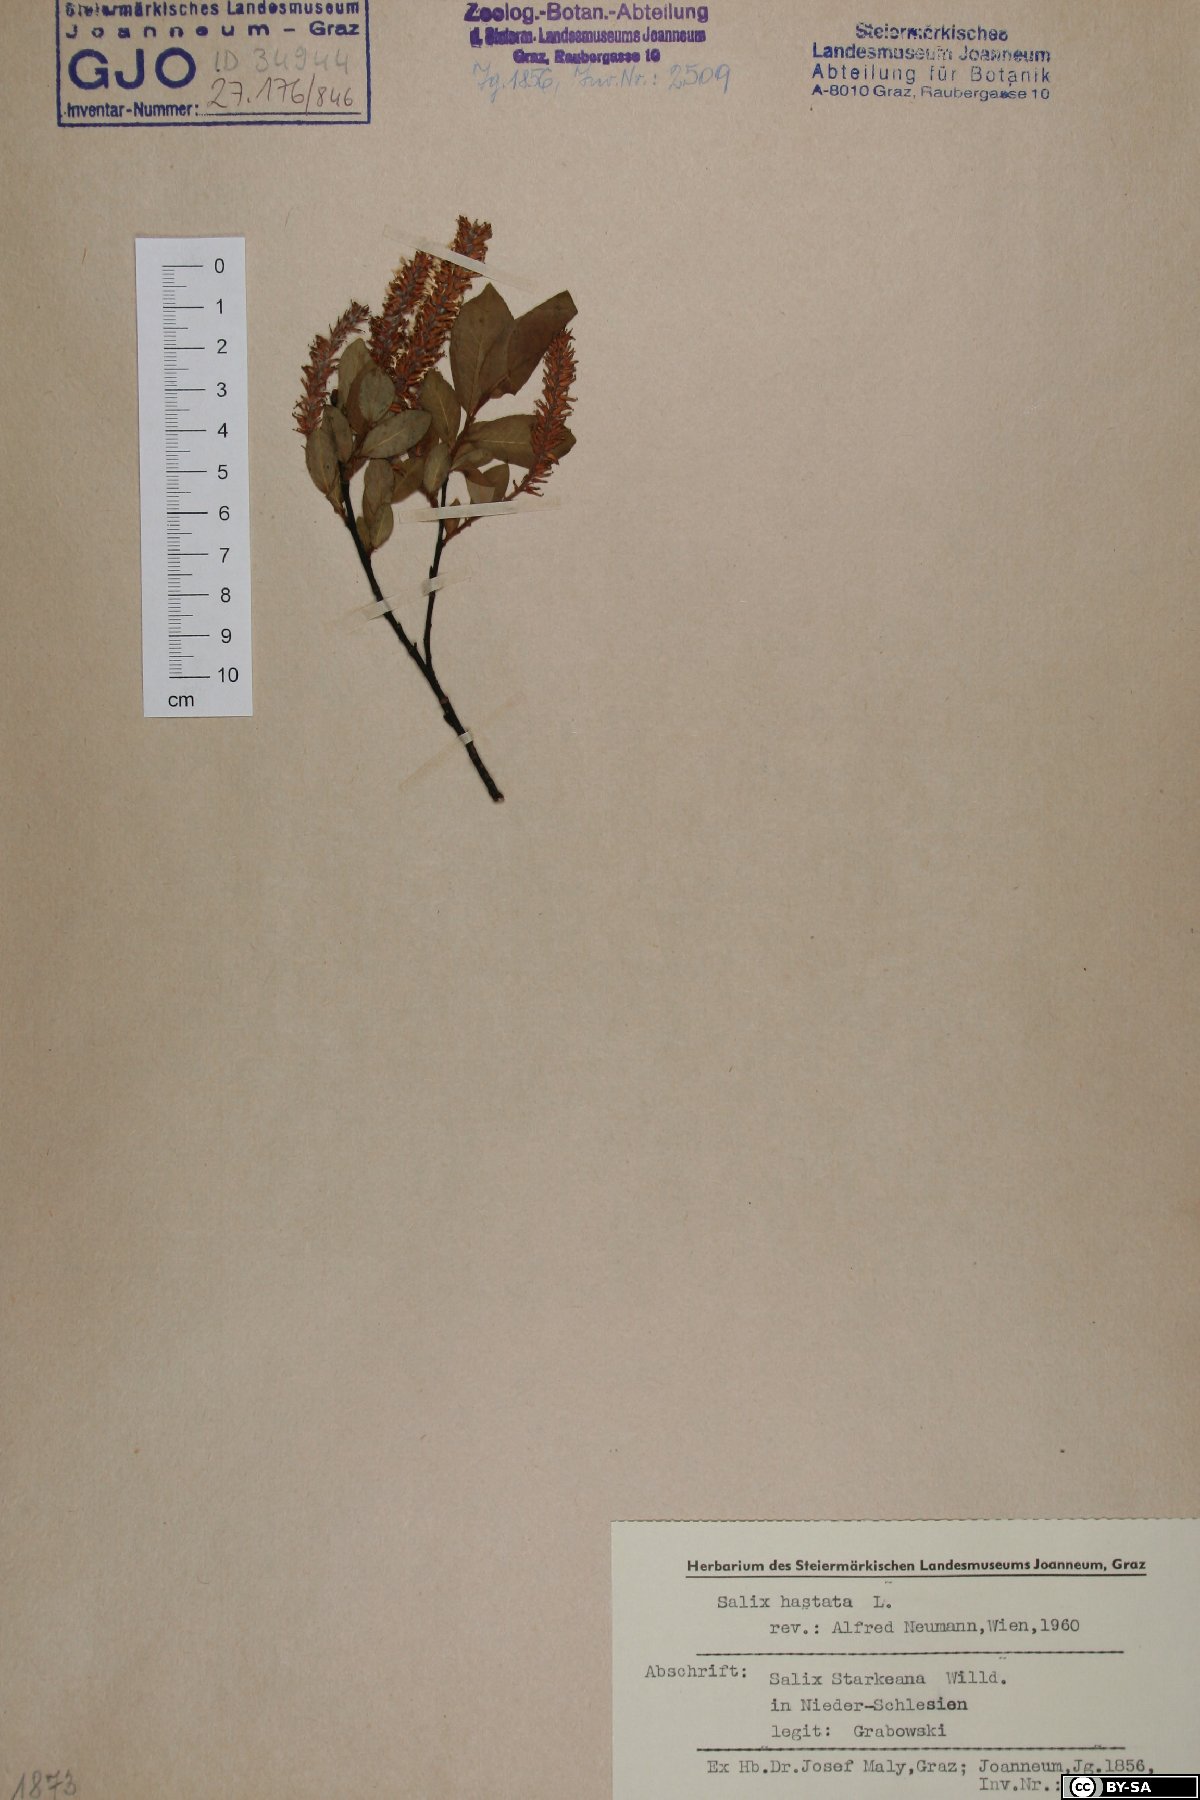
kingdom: Plantae
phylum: Tracheophyta
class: Magnoliopsida
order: Malpighiales
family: Salicaceae
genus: Salix
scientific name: Salix hastata
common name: Halberd willow
